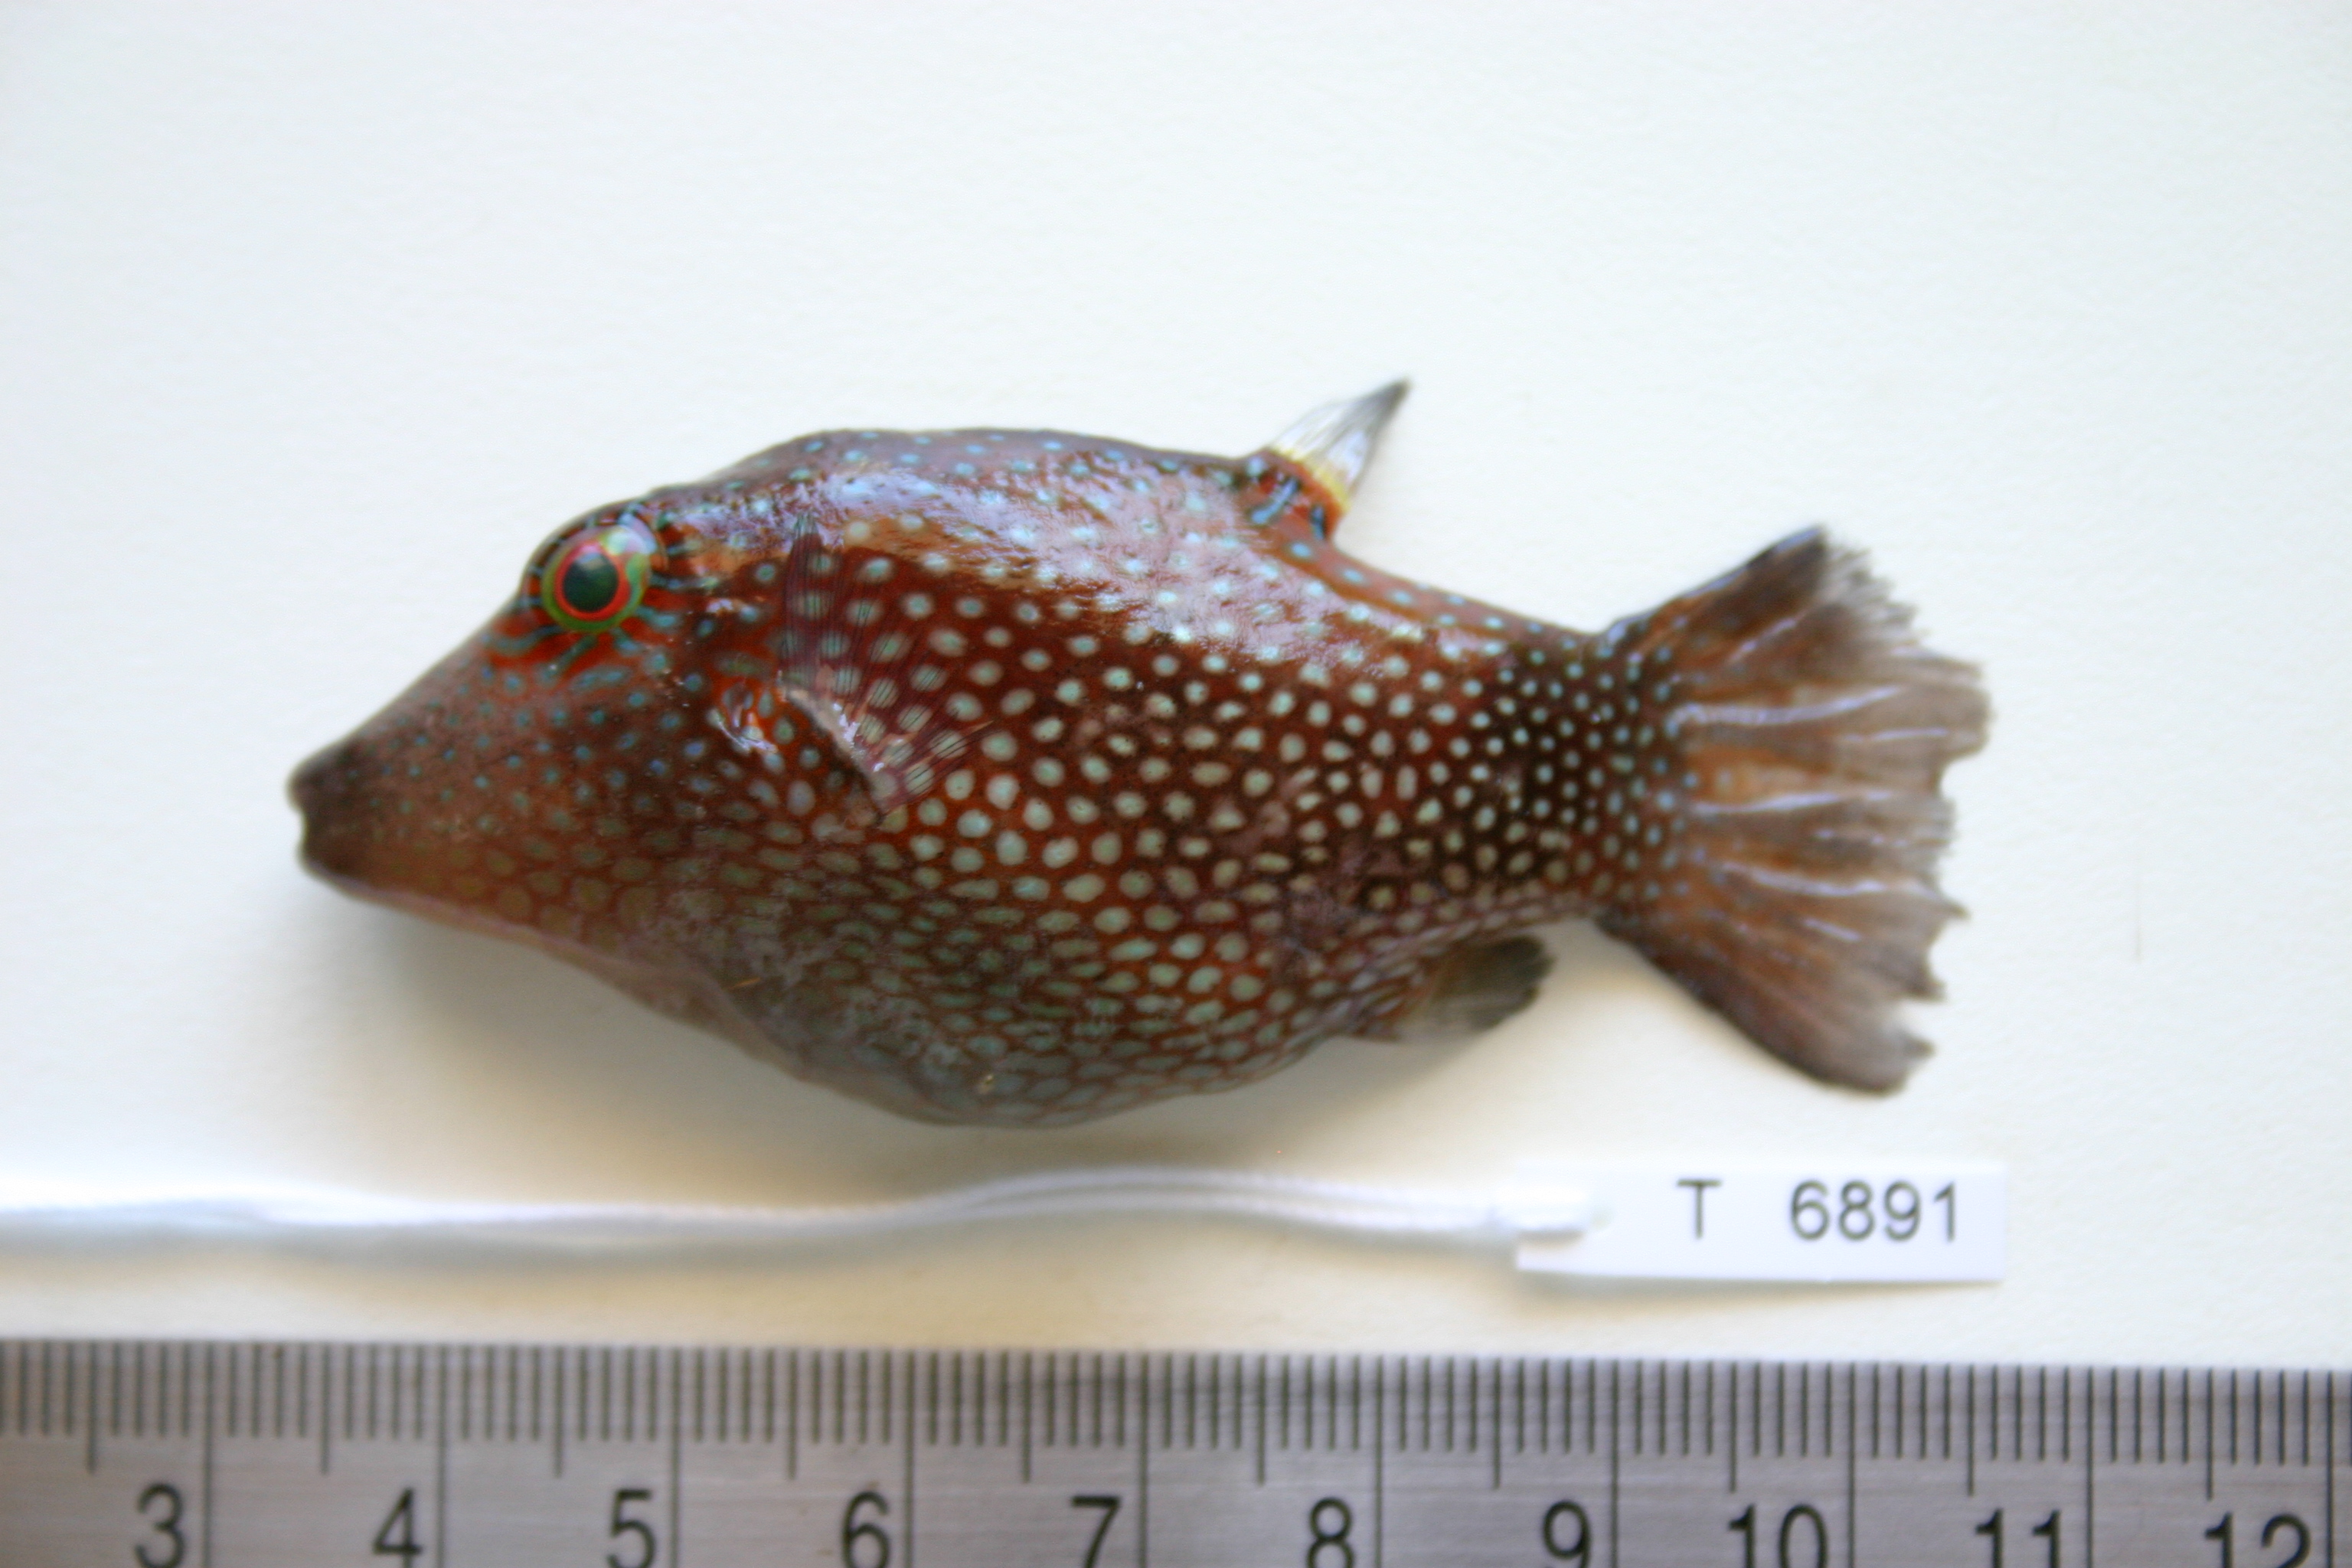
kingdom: Animalia
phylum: Chordata
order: Tetraodontiformes
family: Tetraodontidae
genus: Canthigaster
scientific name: Canthigaster janthinoptera
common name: Honeycomb toby
